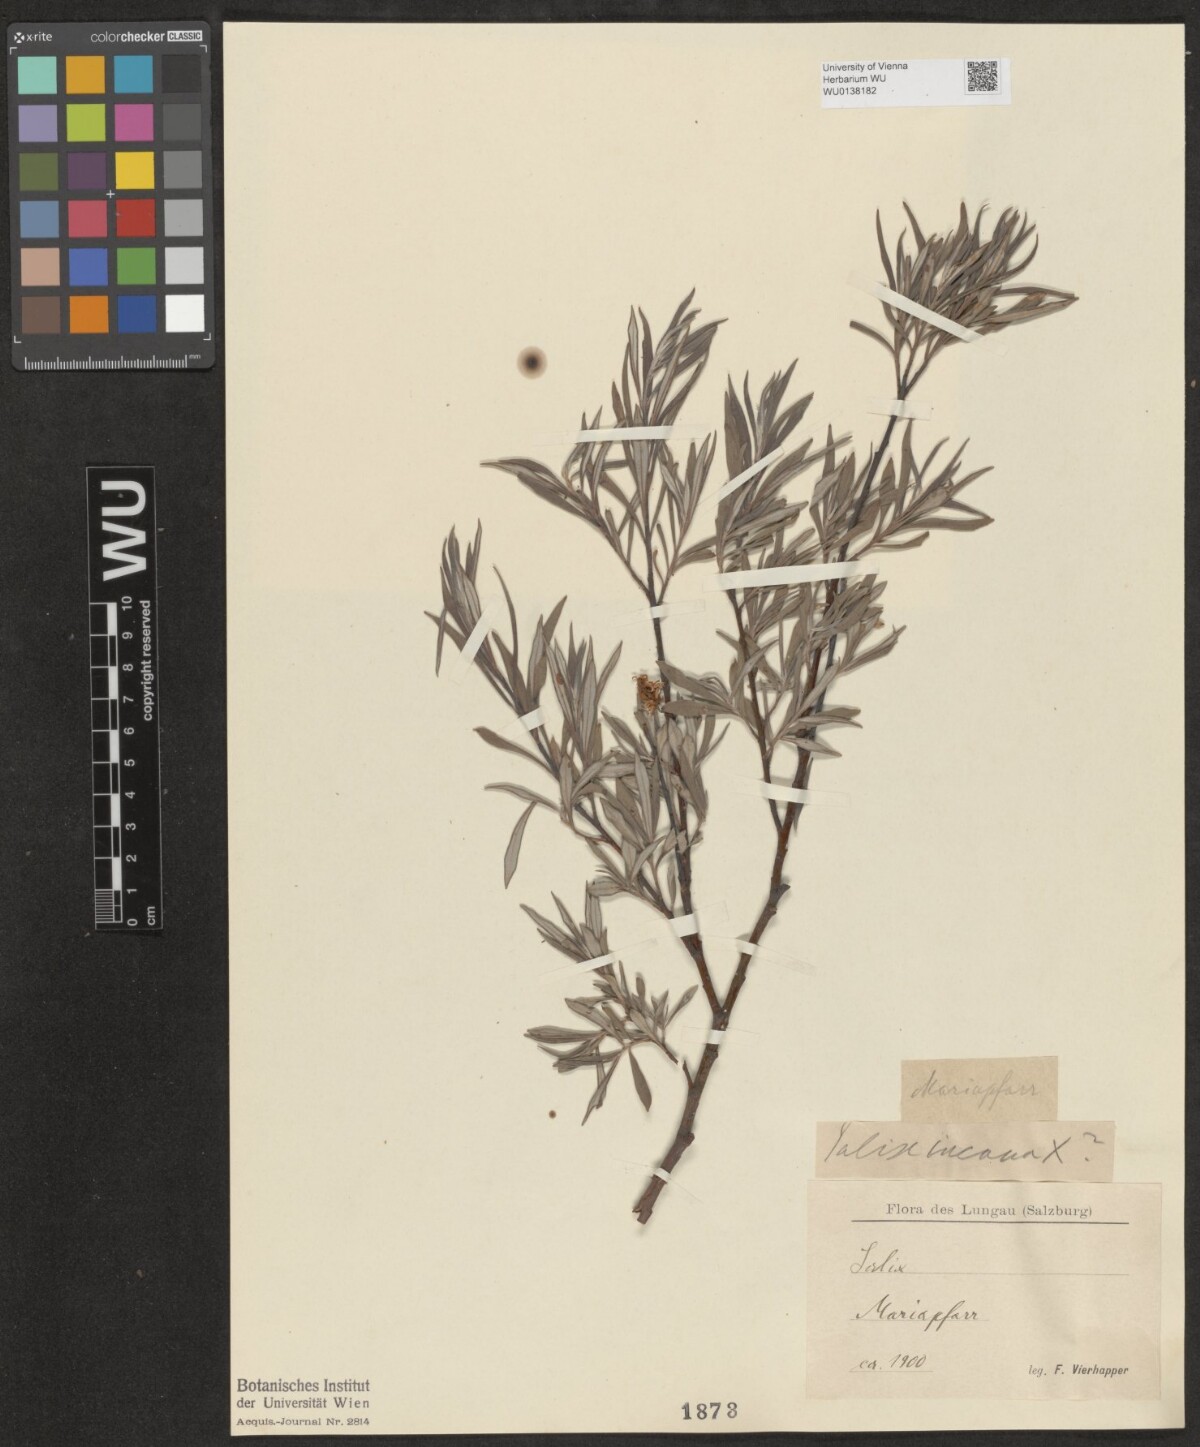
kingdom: Plantae
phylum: Tracheophyta
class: Magnoliopsida
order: Malpighiales
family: Salicaceae
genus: Salix
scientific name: Salix eleagnos
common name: Elaeagnus willow
